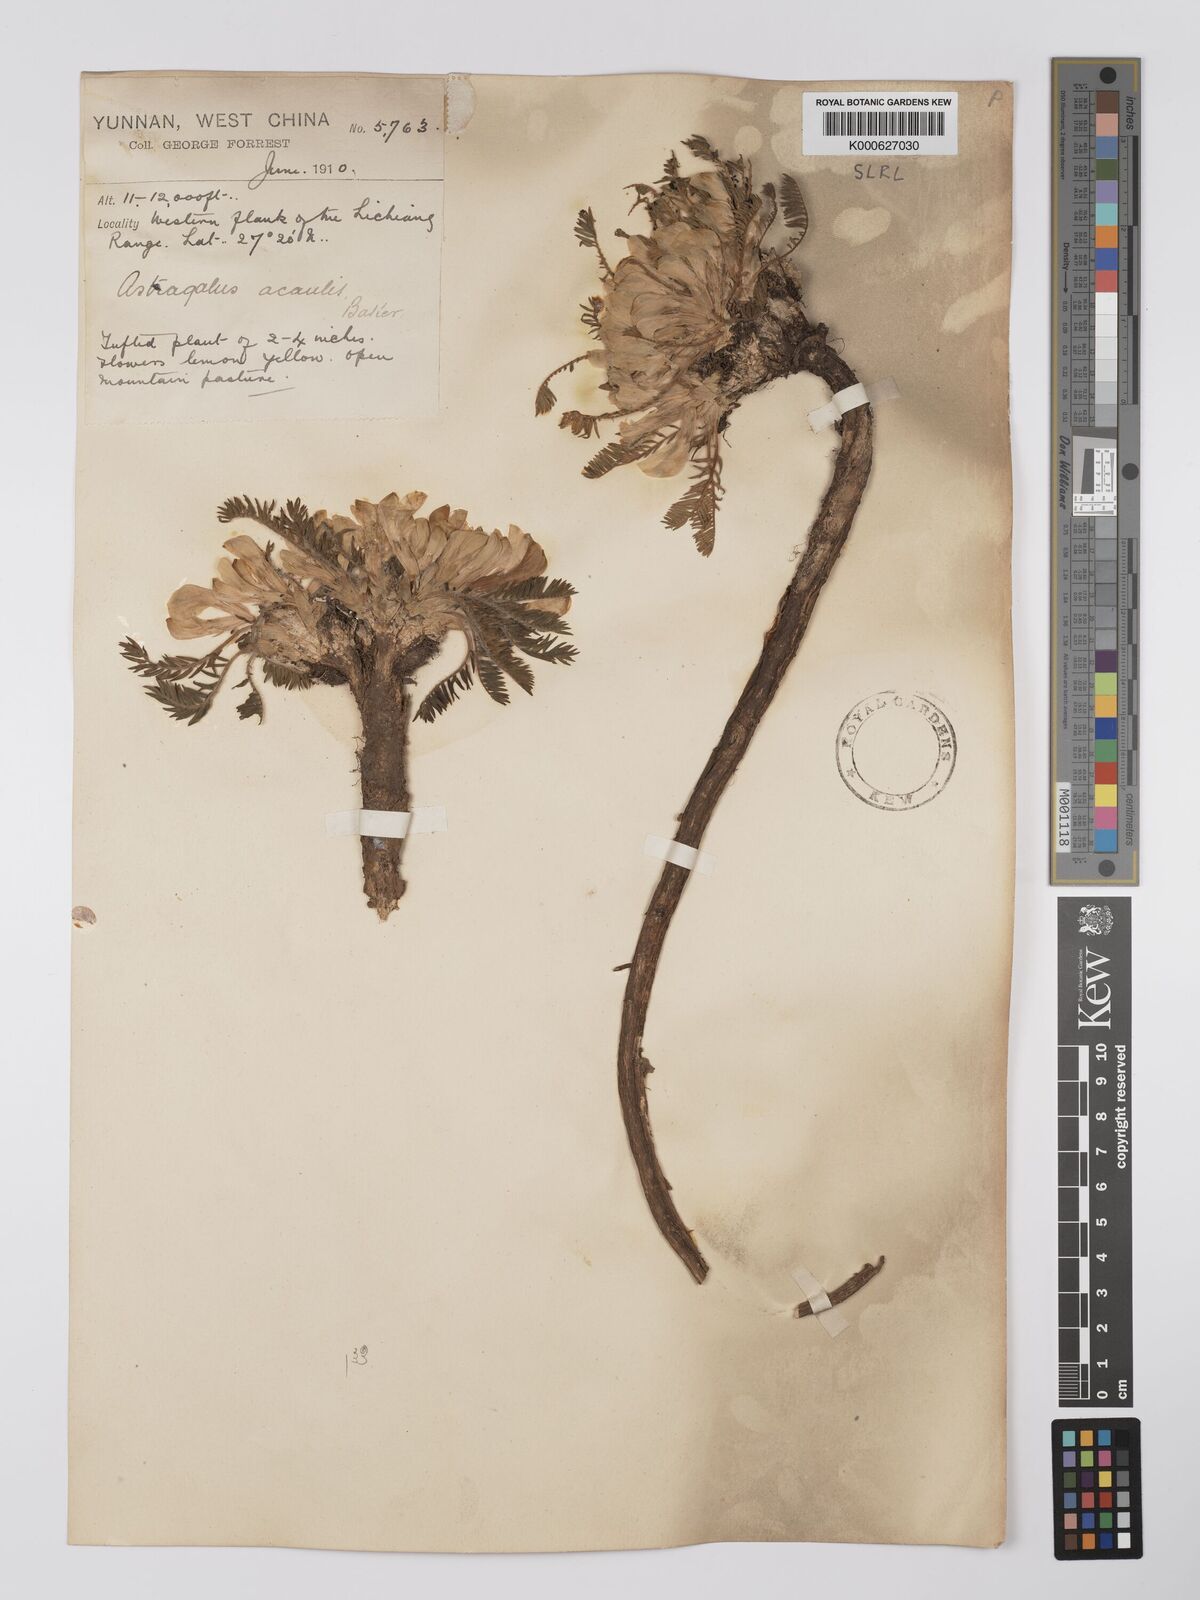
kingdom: Plantae
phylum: Tracheophyta
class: Magnoliopsida
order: Fabales
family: Fabaceae
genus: Astragalus
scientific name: Astragalus acaulis
